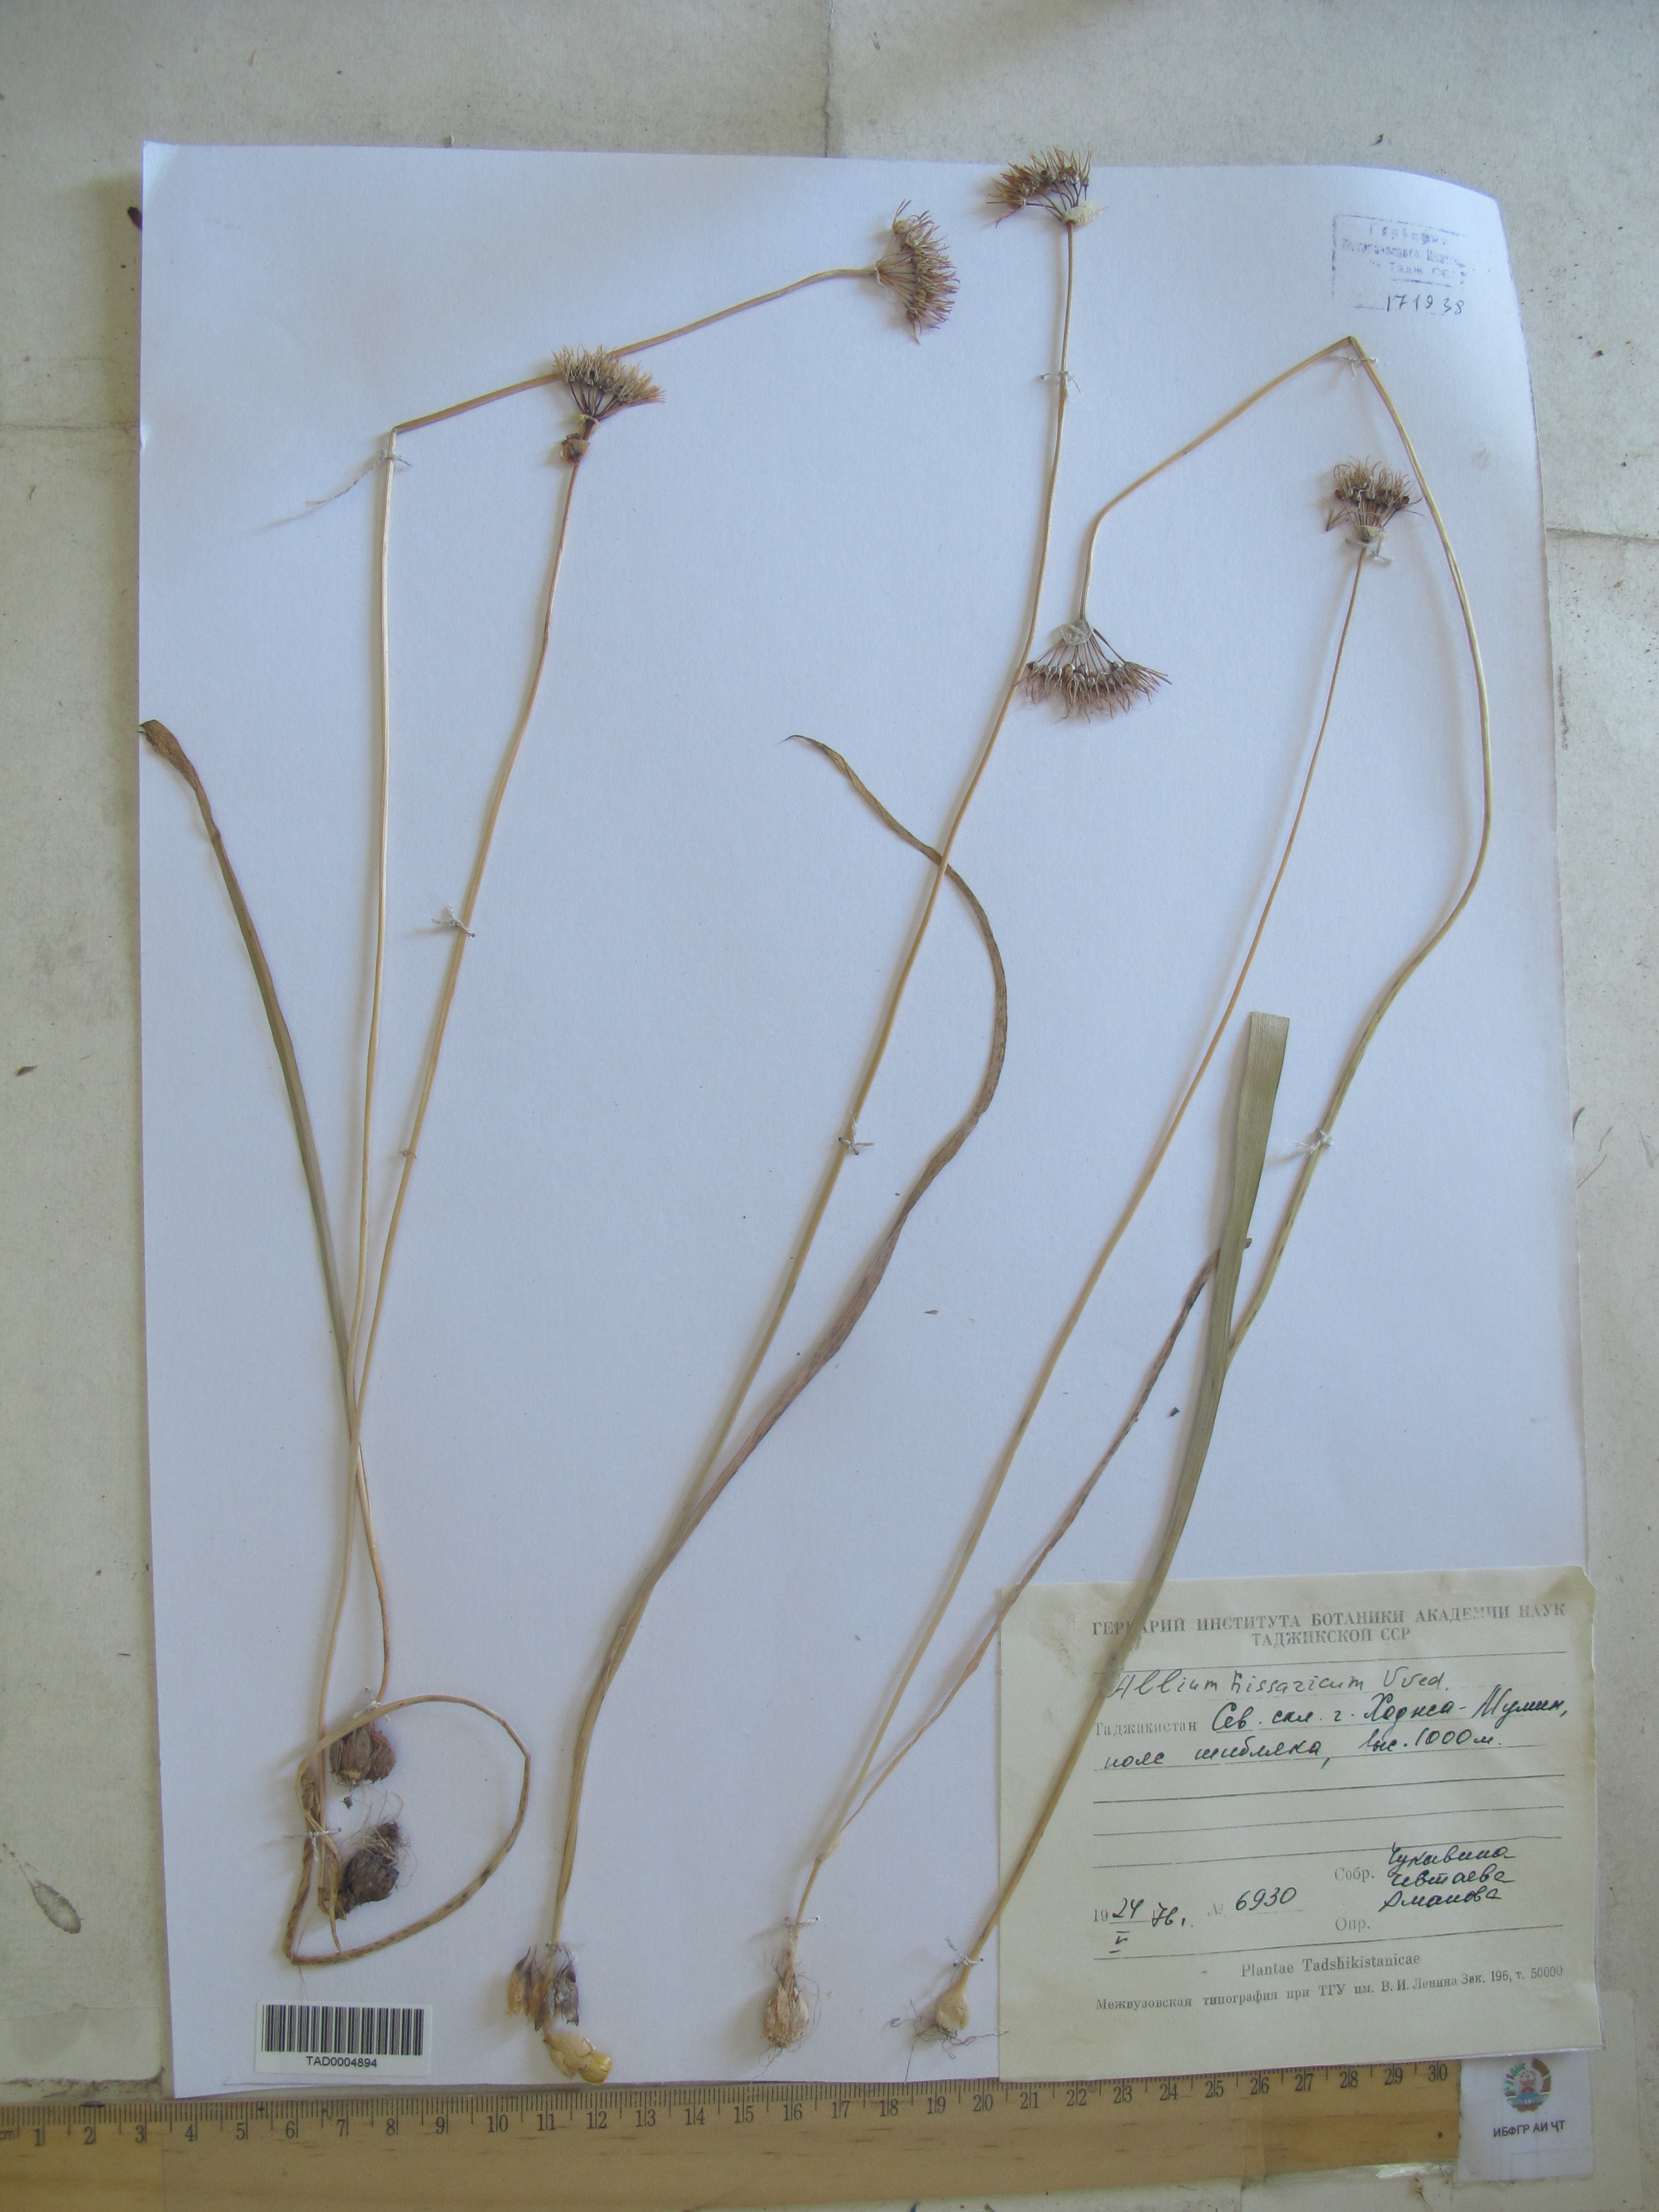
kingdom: Plantae
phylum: Tracheophyta
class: Liliopsida
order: Asparagales
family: Amaryllidaceae
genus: Allium
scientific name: Allium gusaricum
